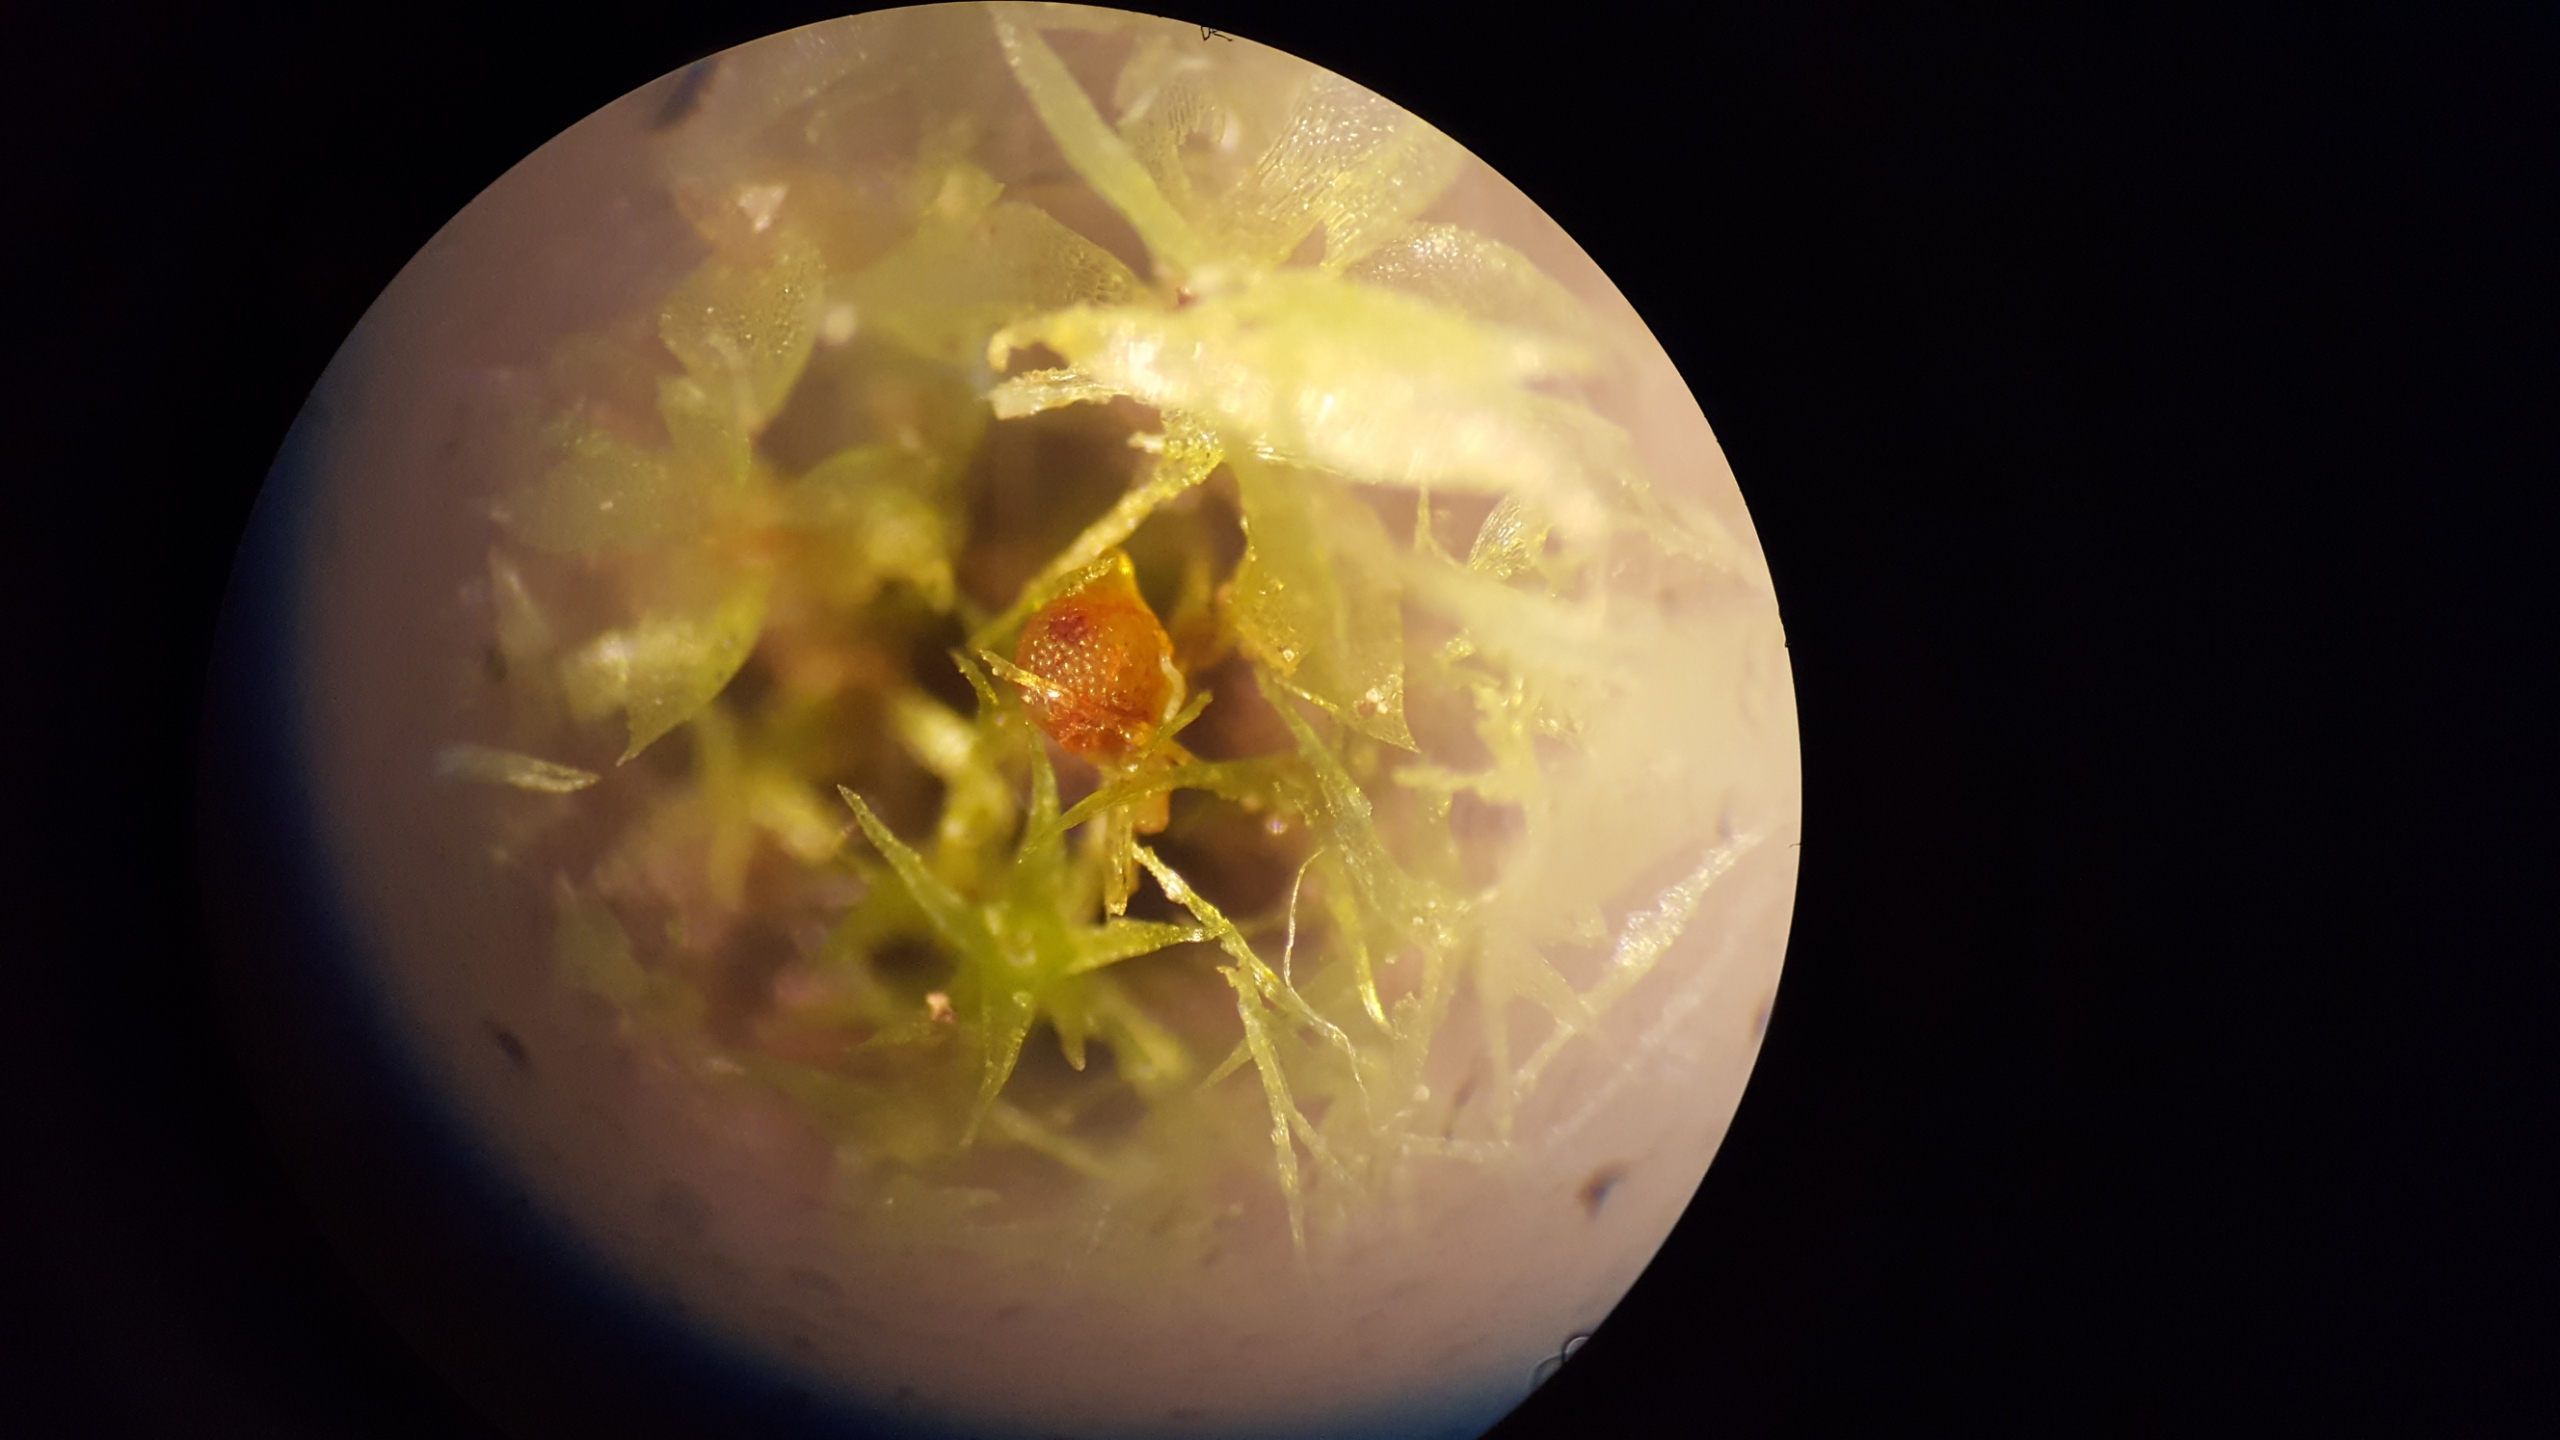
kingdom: Plantae
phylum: Bryophyta
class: Bryopsida
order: Funariales
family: Funariaceae
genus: Physcomitrium
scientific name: Physcomitrium patens
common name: Bulet muddermos
